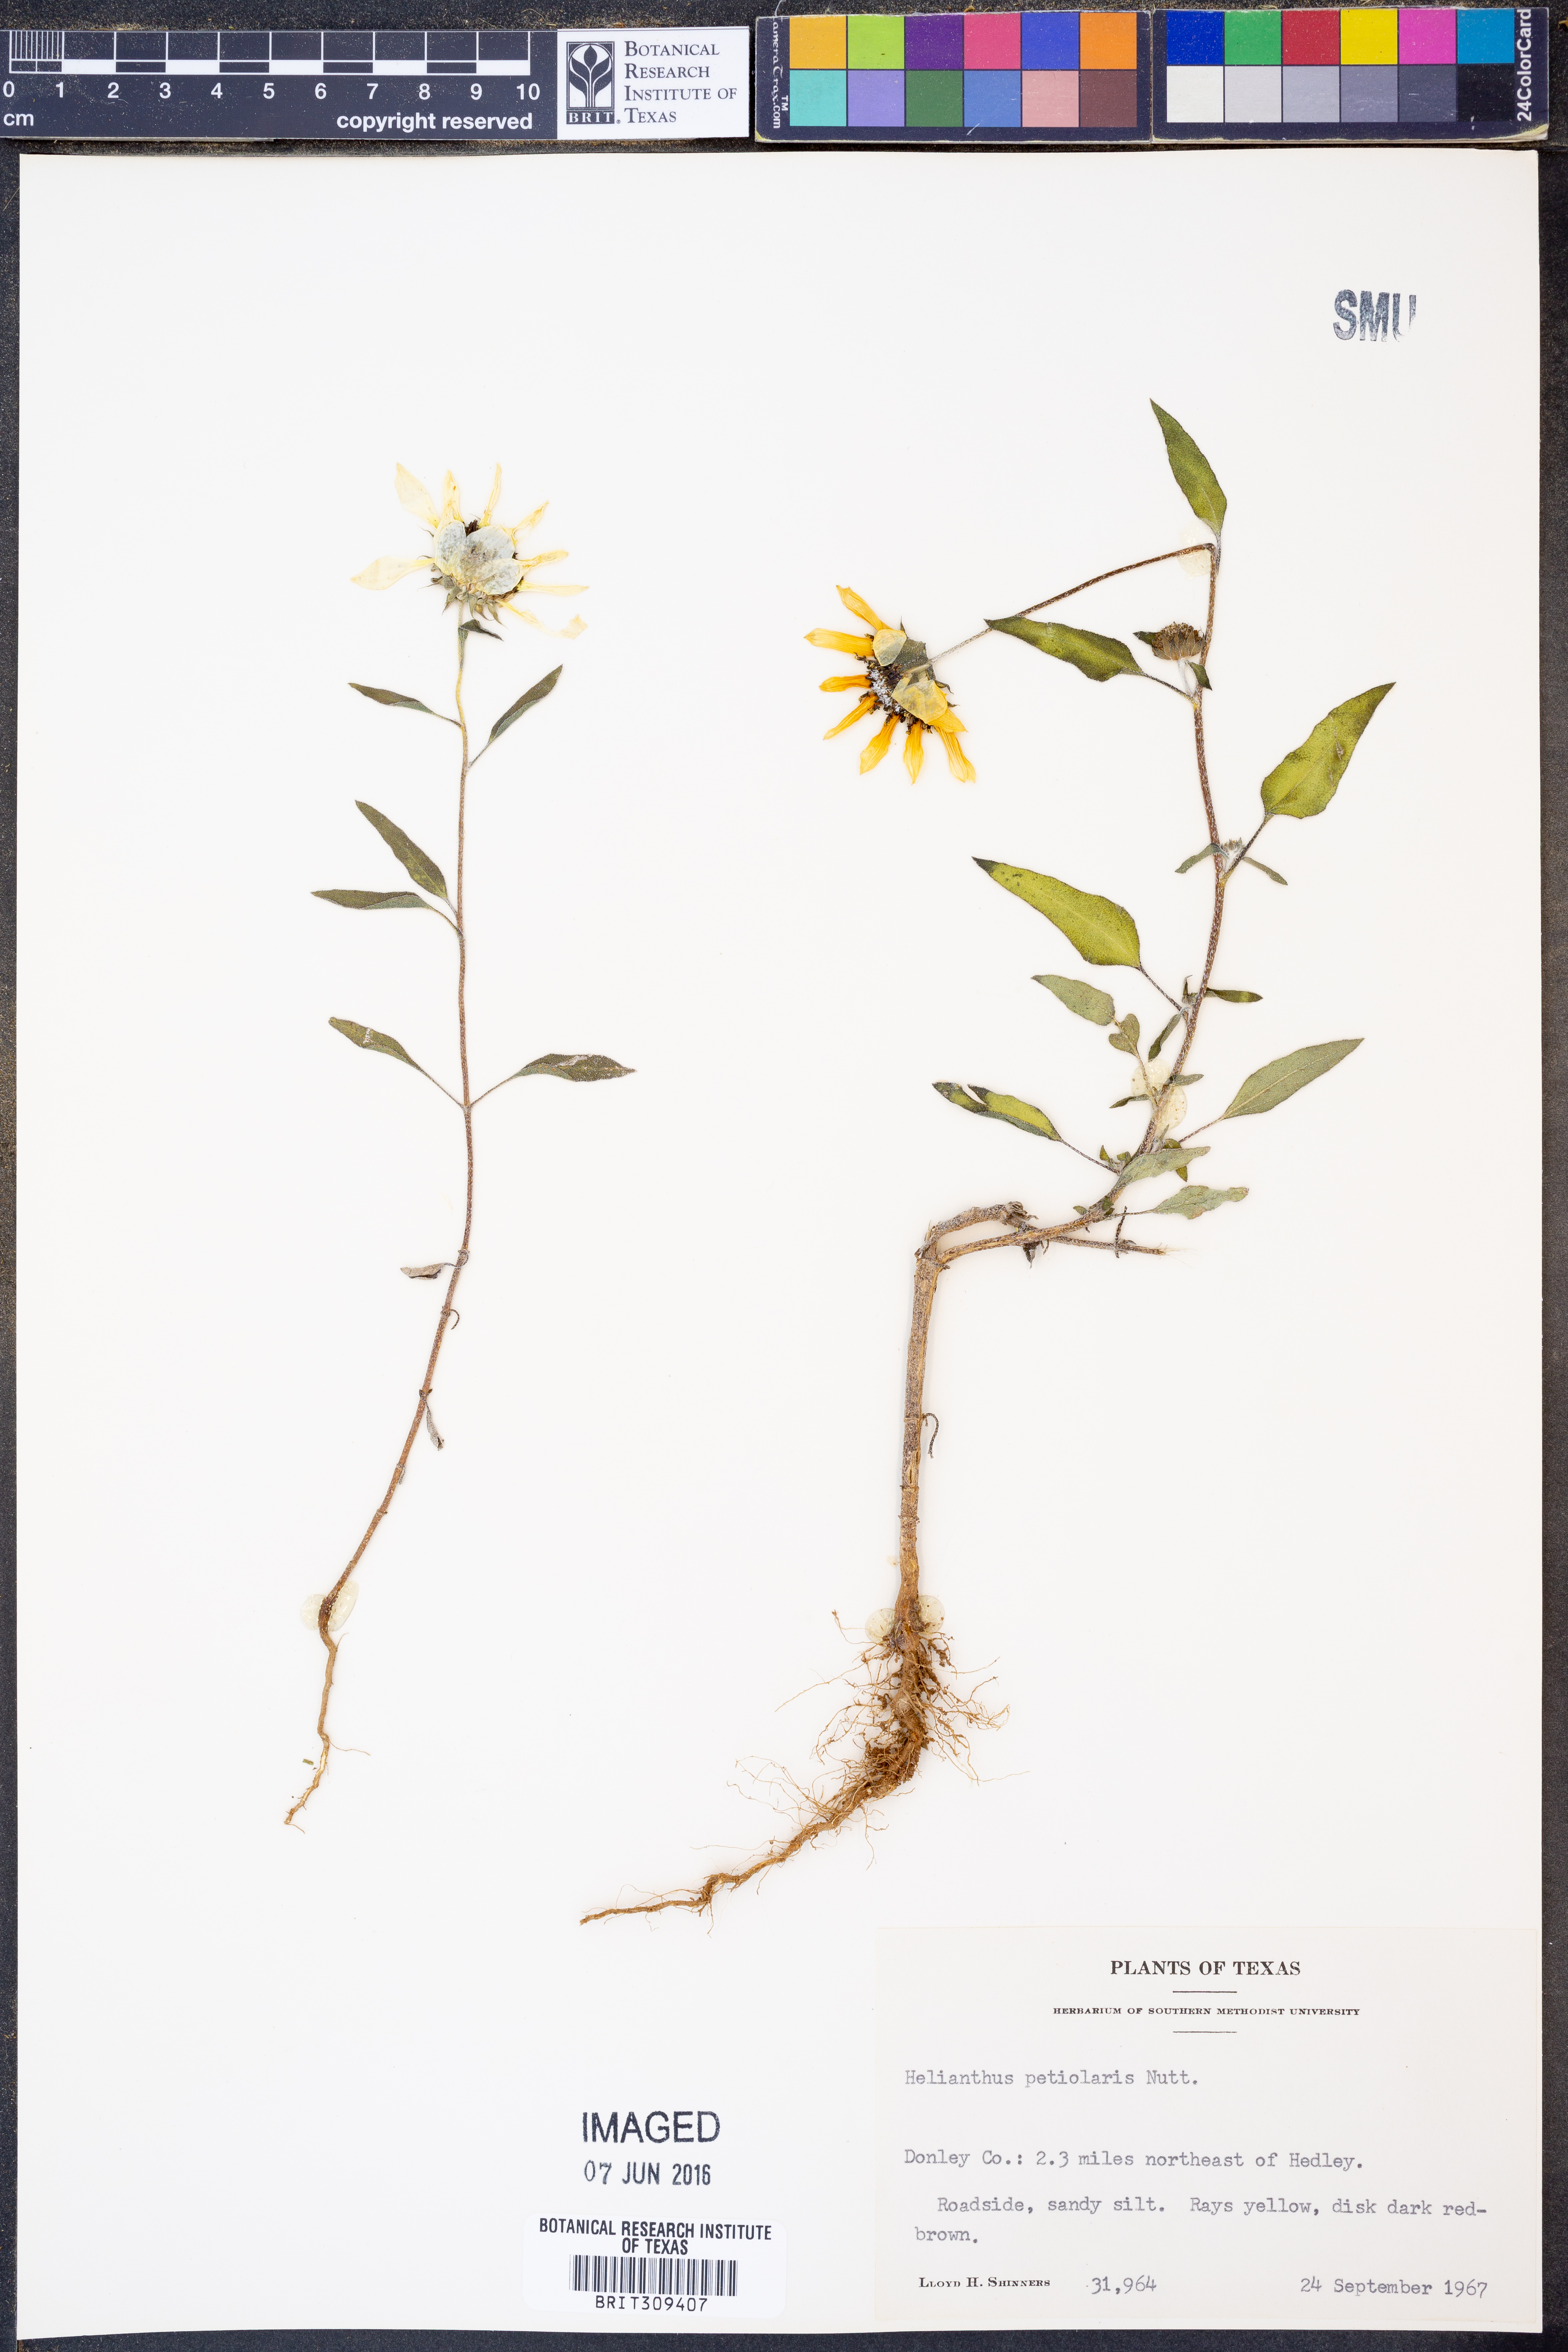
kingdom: Plantae
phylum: Tracheophyta
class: Magnoliopsida
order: Asterales
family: Asteraceae
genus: Helianthus
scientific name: Helianthus petiolaris
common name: Lesser sunflower
